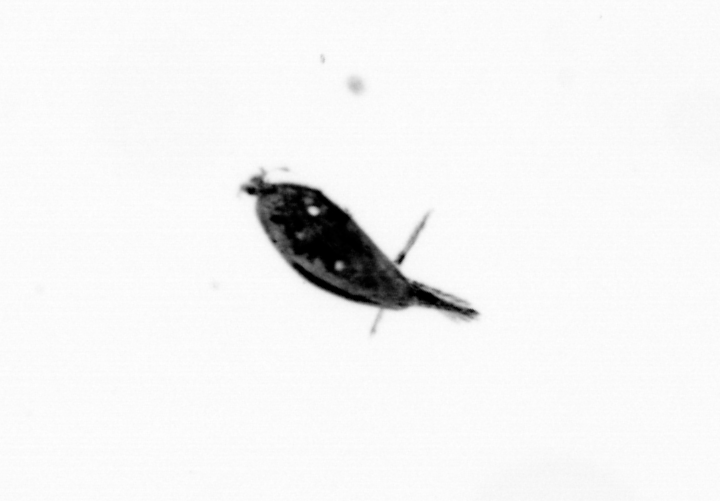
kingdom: Animalia
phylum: Arthropoda
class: Maxillopoda
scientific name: Maxillopoda
